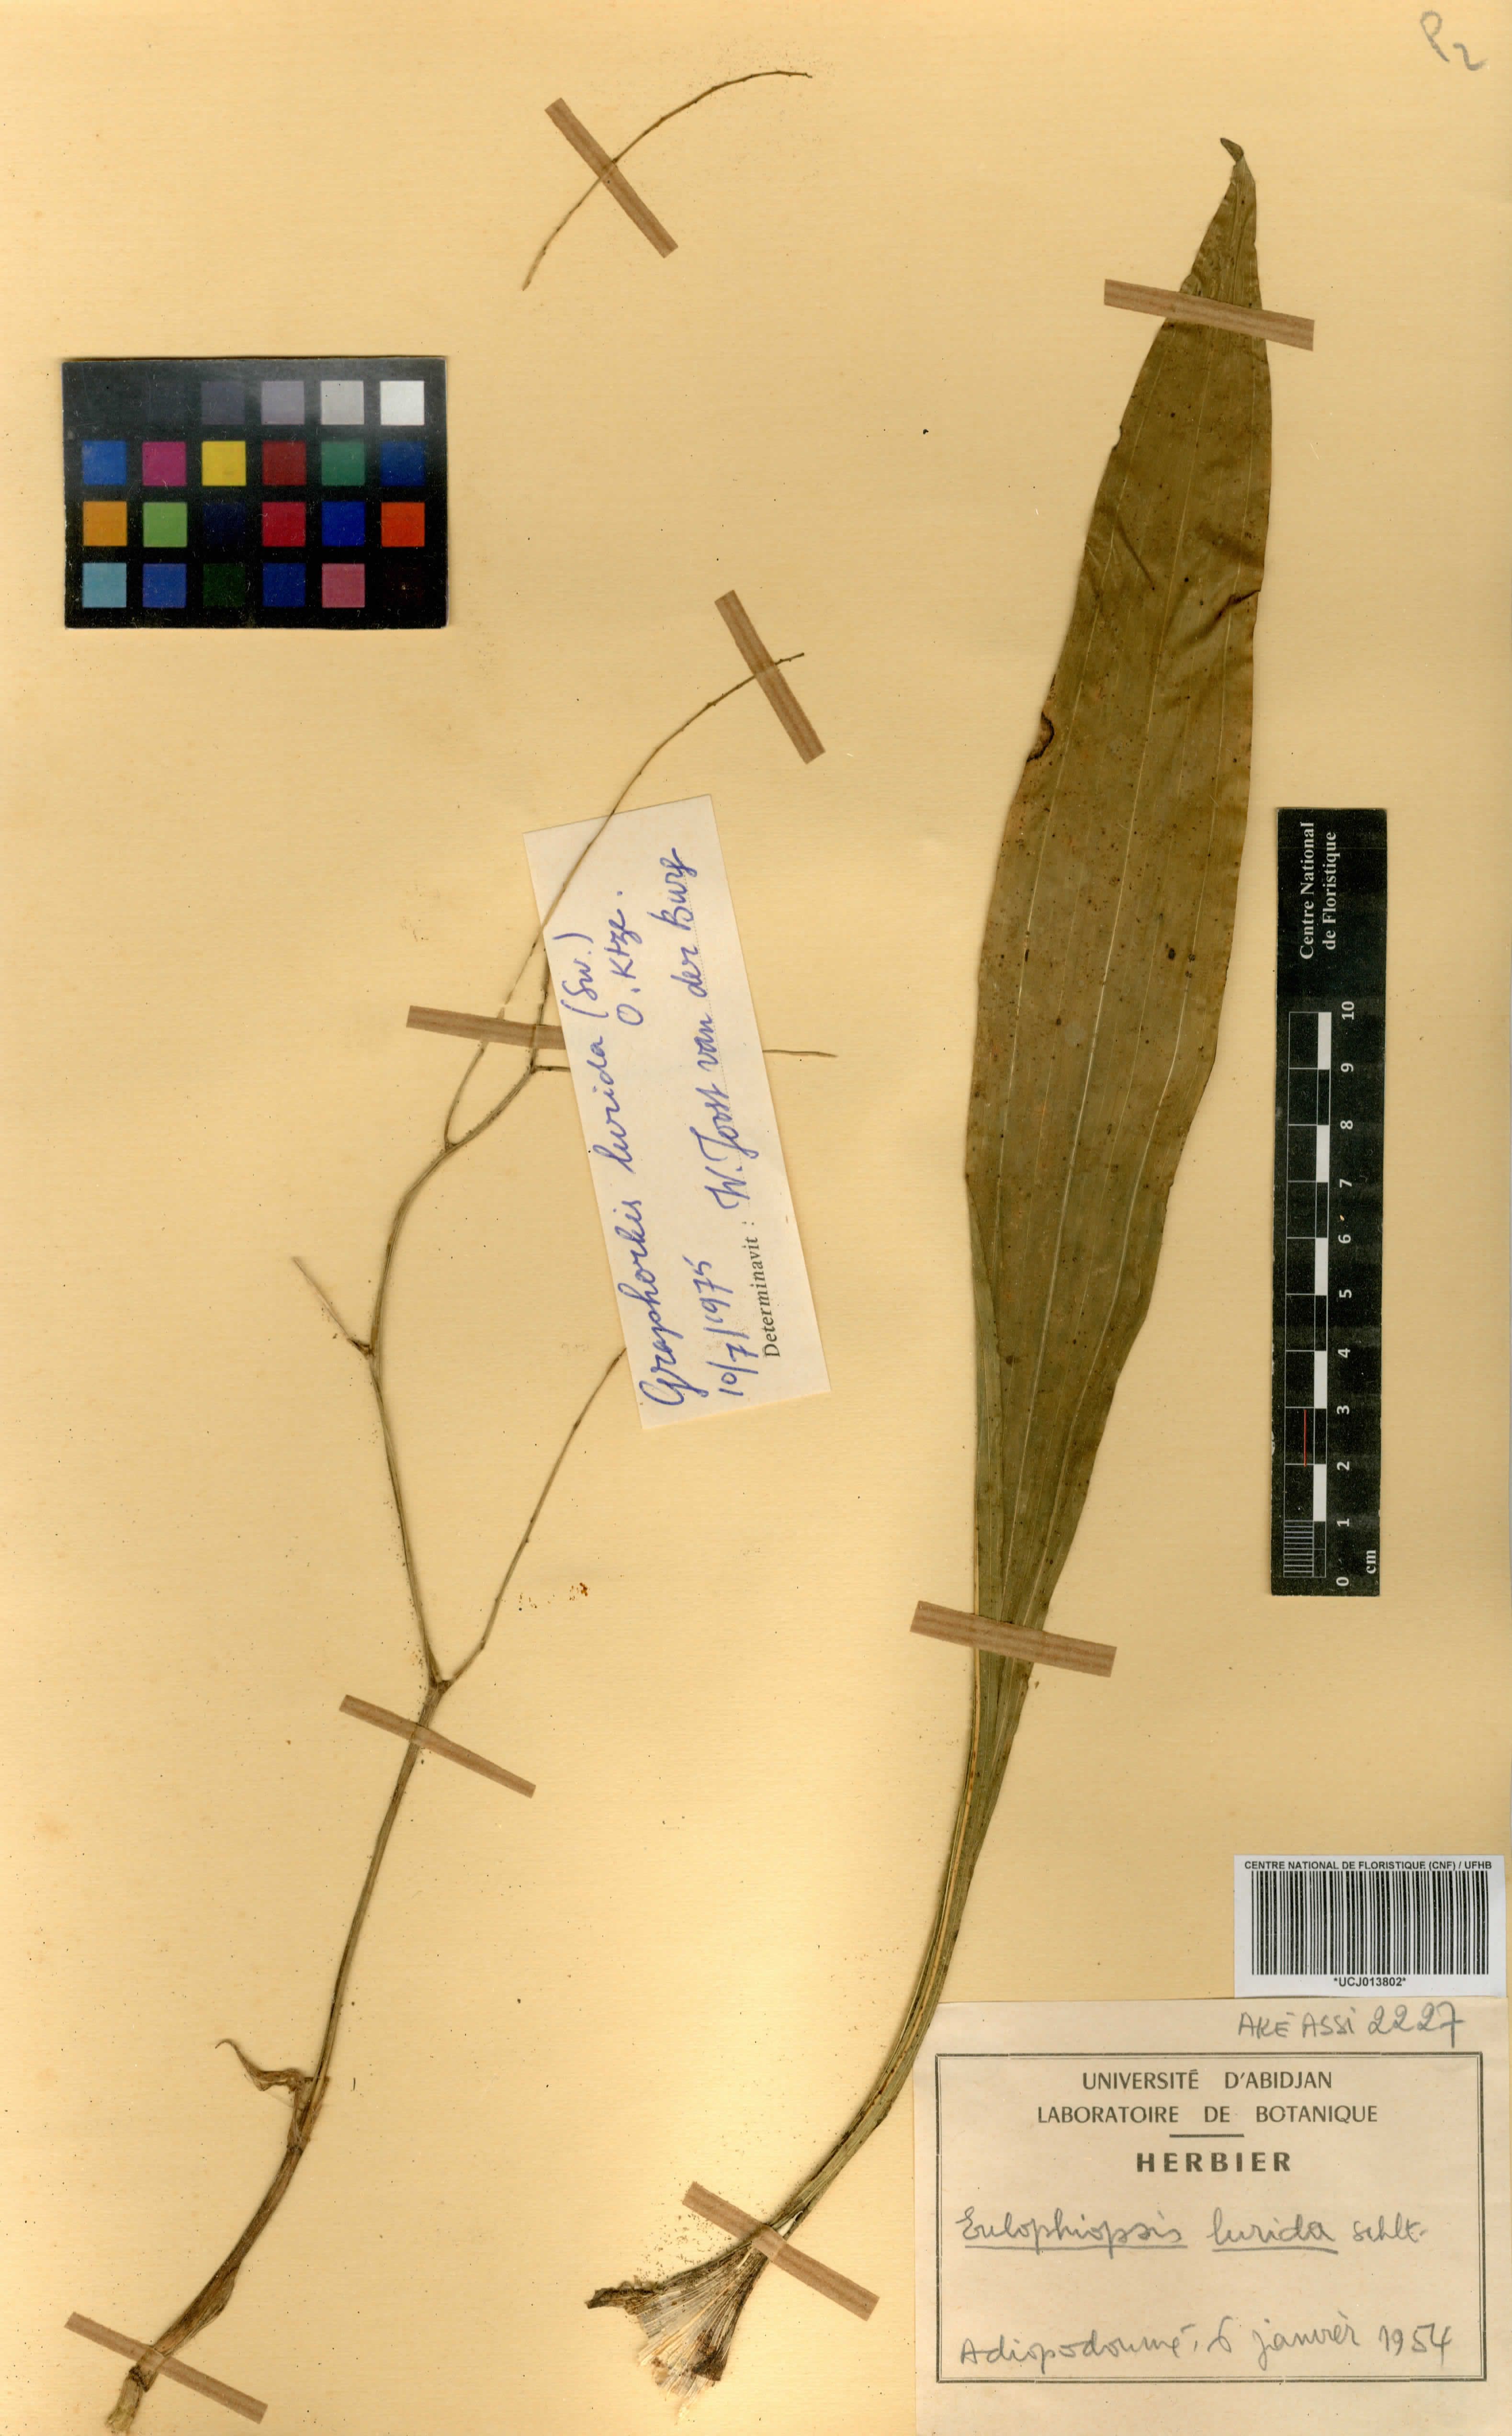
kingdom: Plantae
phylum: Tracheophyta
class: Liliopsida
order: Asparagales
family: Orchidaceae
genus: Graphorkis
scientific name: Graphorkis lurida
